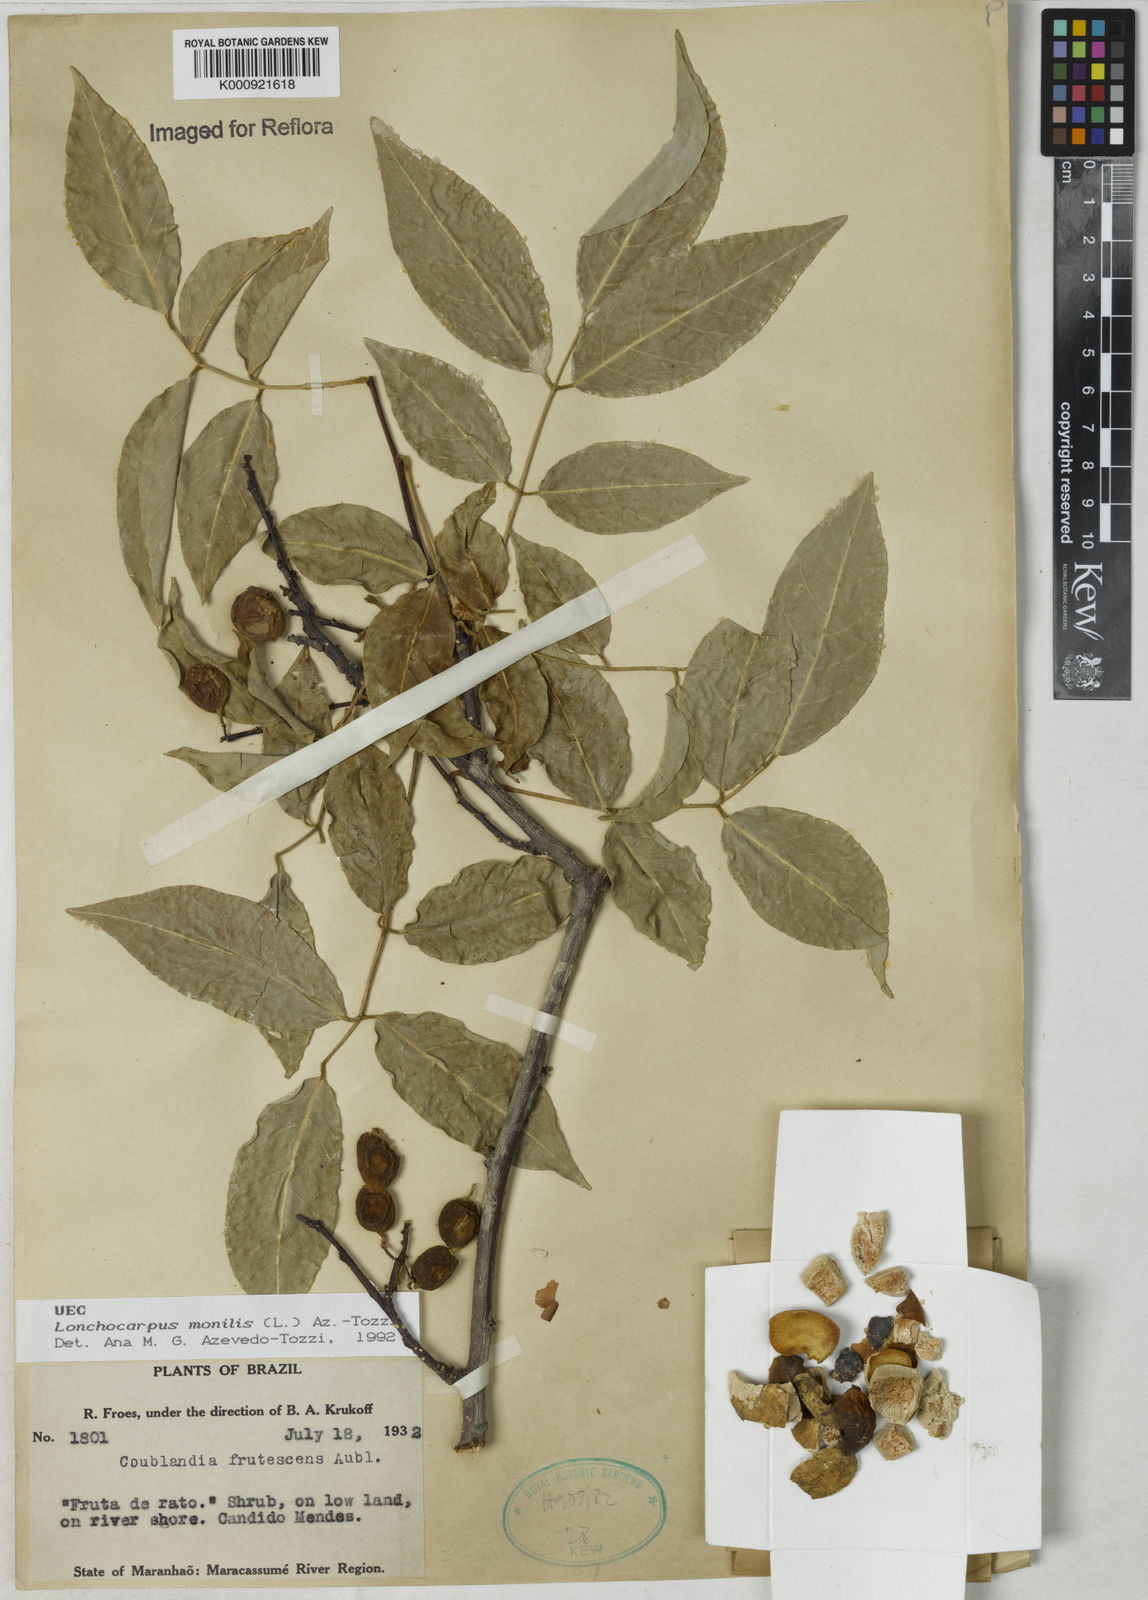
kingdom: Plantae
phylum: Tracheophyta
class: Magnoliopsida
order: Fabales
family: Fabaceae
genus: Muellera
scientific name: Muellera monilis
